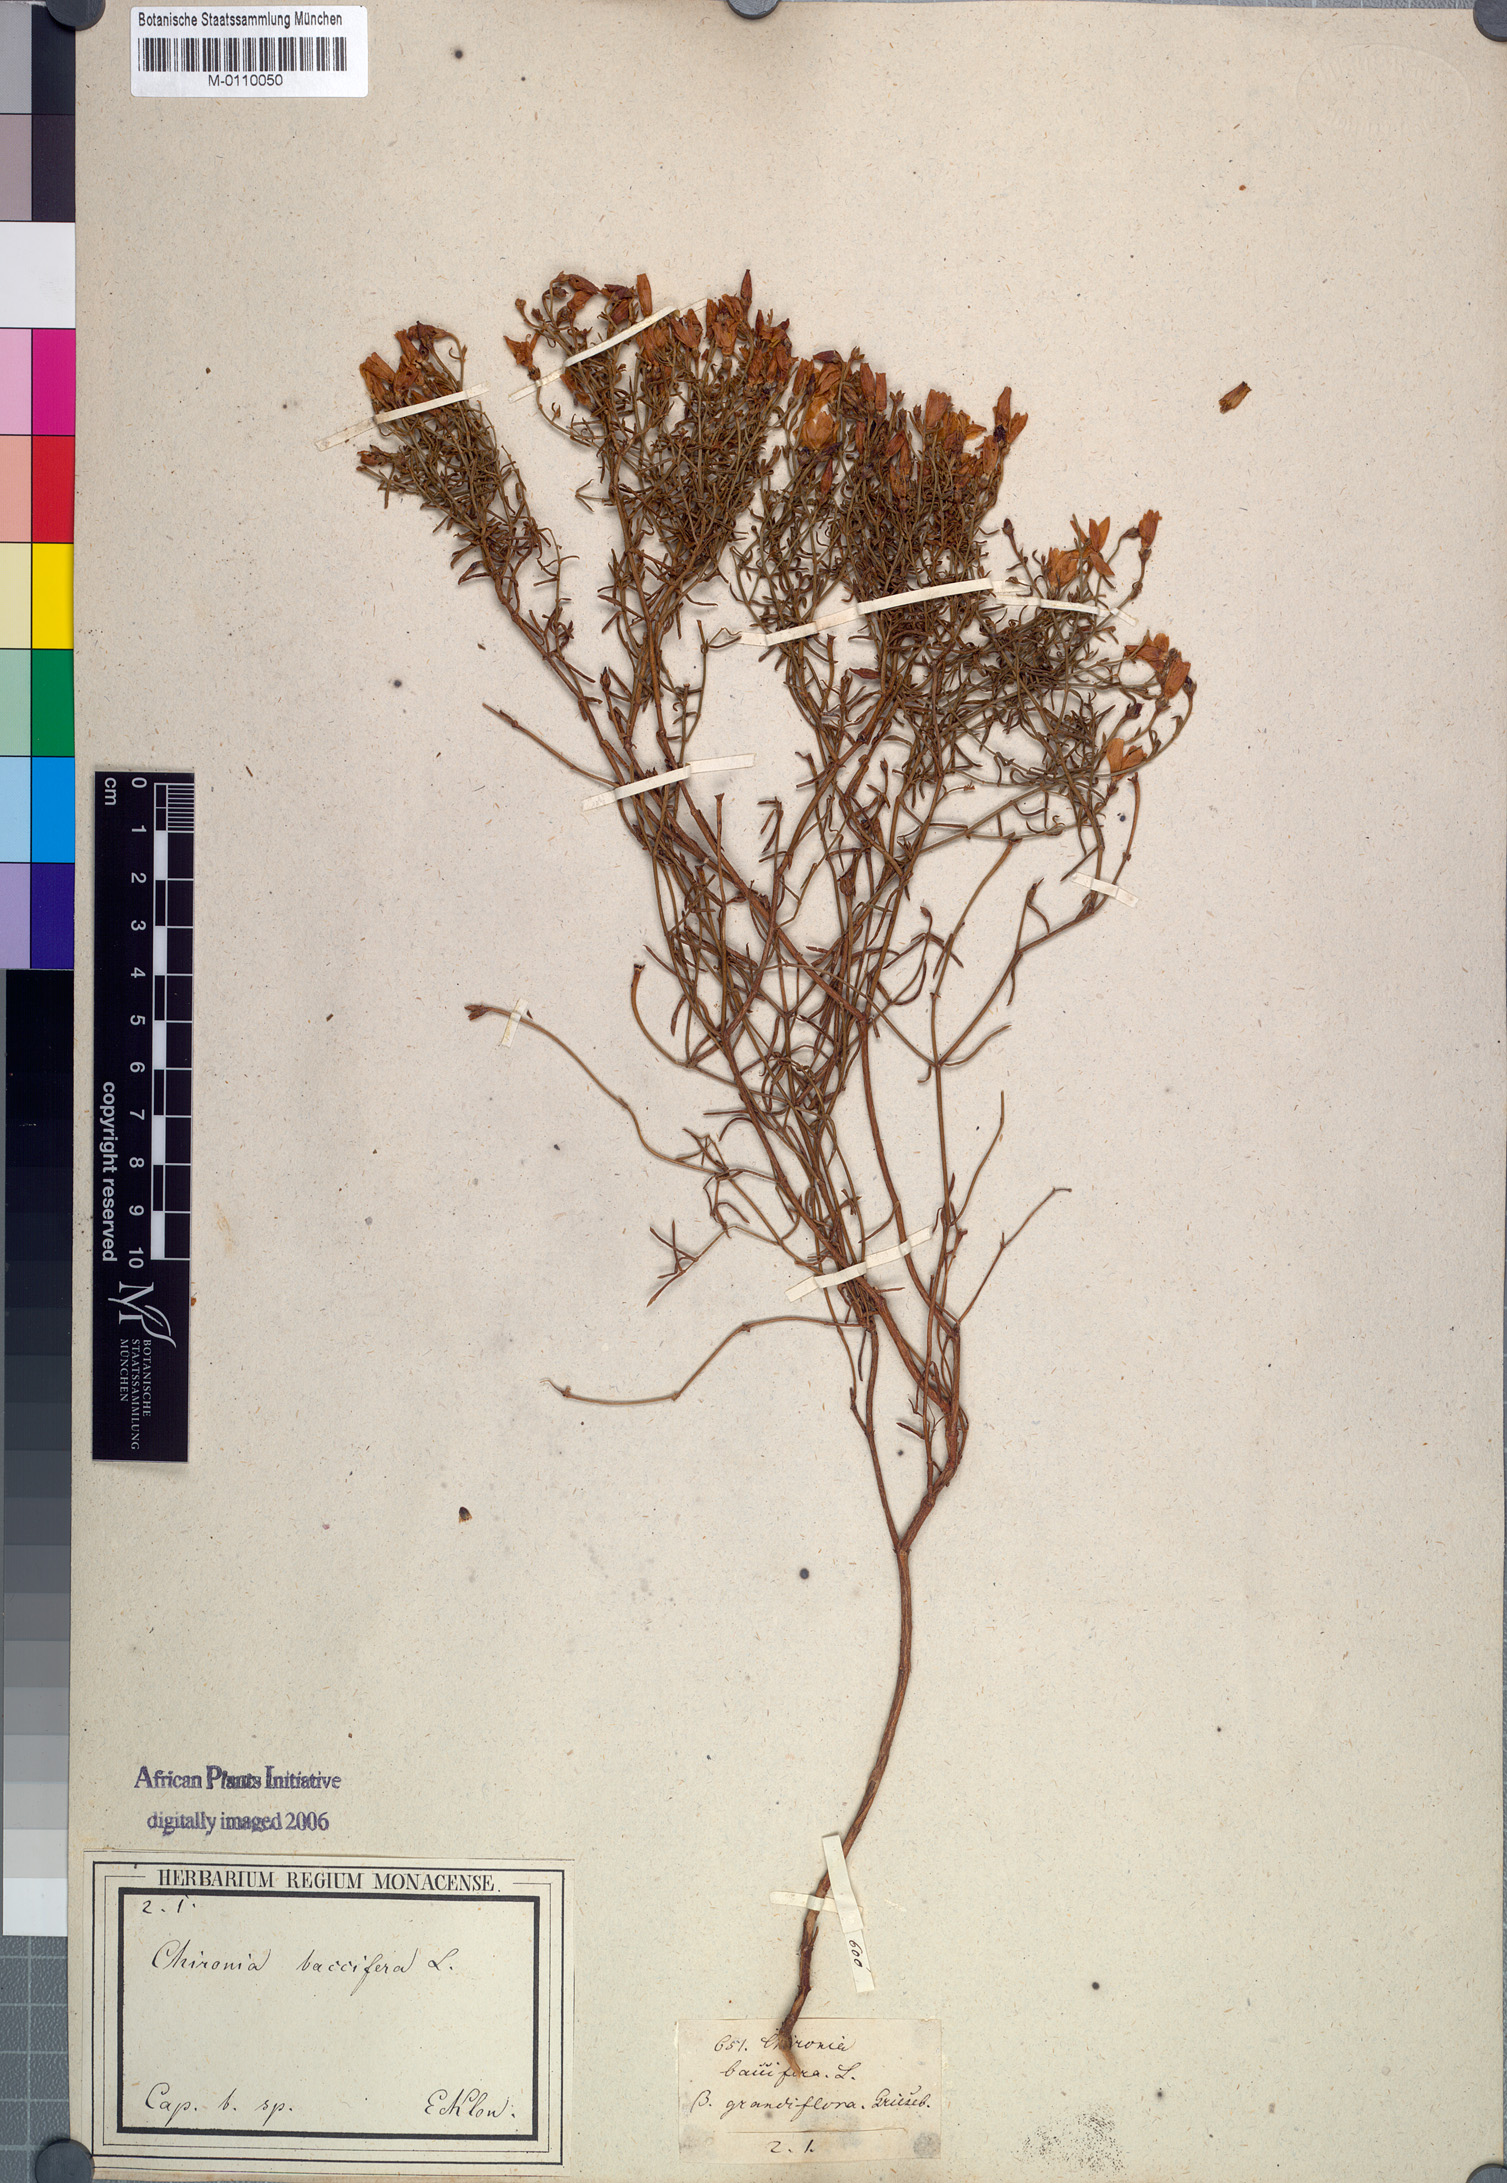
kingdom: Plantae
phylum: Tracheophyta
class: Magnoliopsida
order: Gentianales
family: Gentianaceae
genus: Chironia
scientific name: Chironia baccifera
